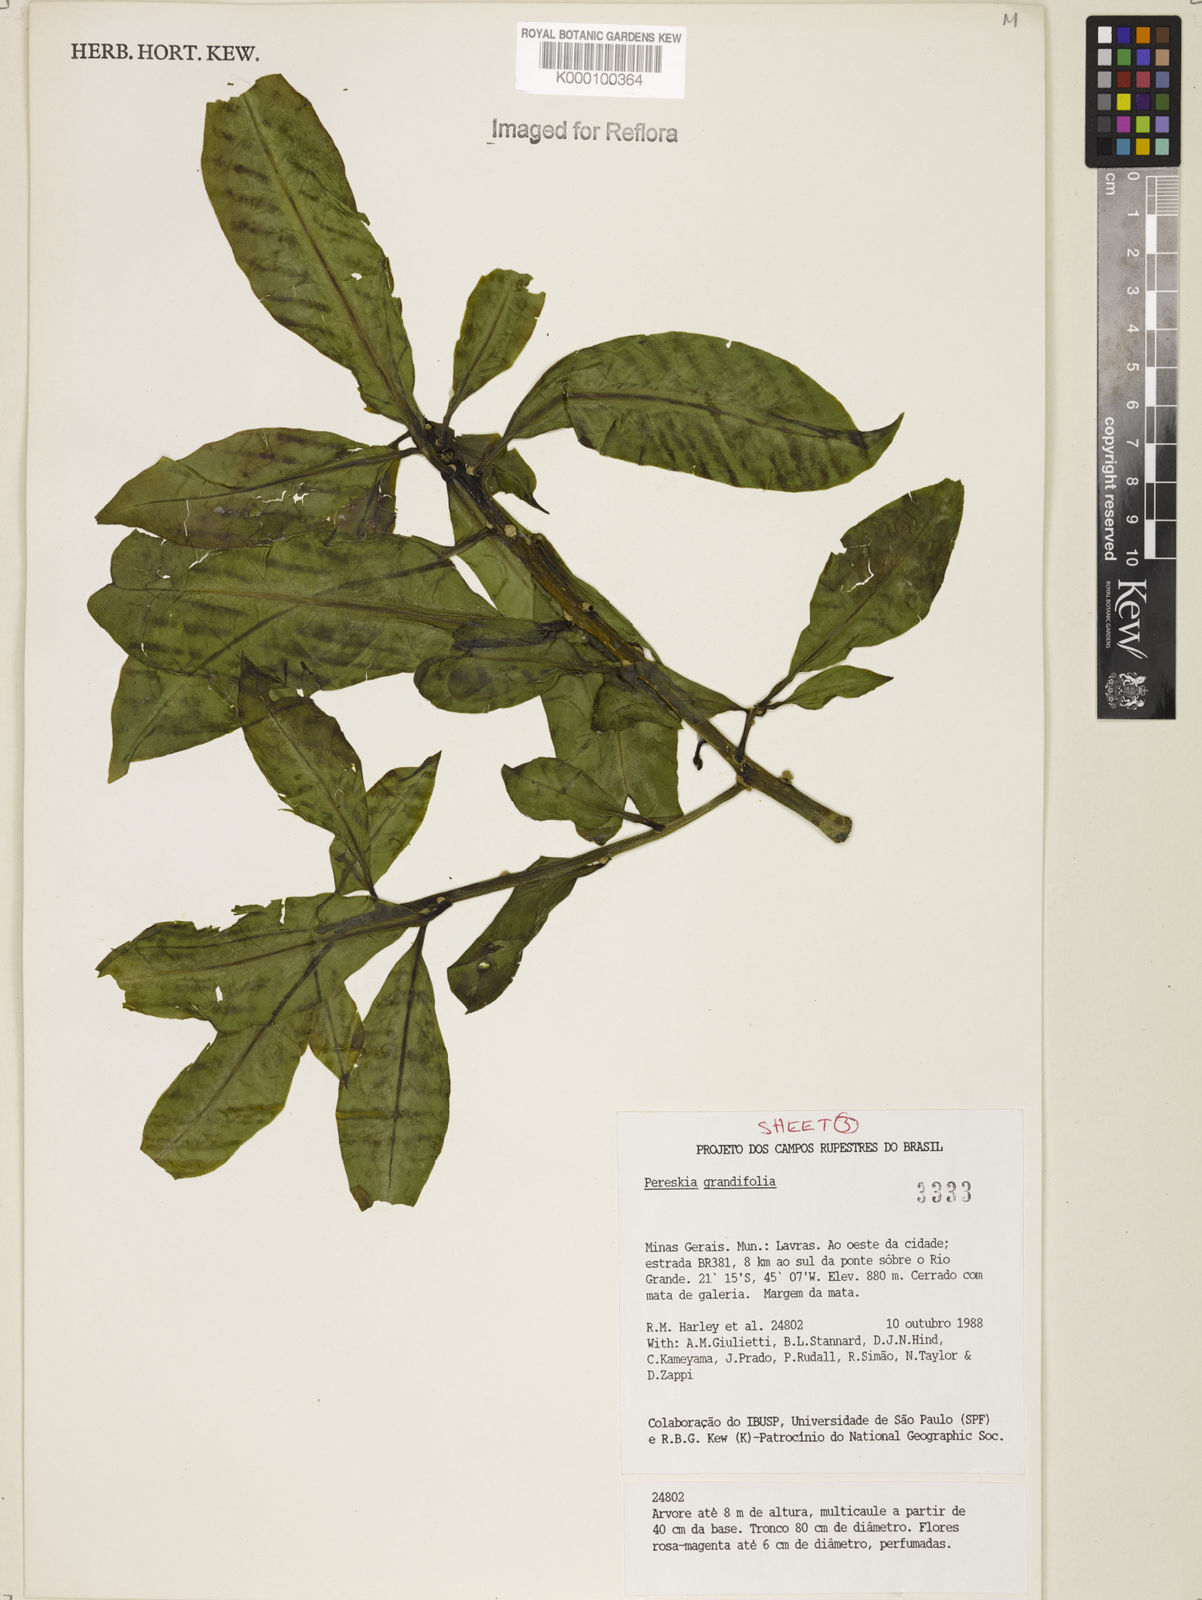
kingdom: Plantae
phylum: Tracheophyta
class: Magnoliopsida
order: Caryophyllales
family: Cactaceae
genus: Pereskia
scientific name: Pereskia grandifolia
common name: Rose cactus
